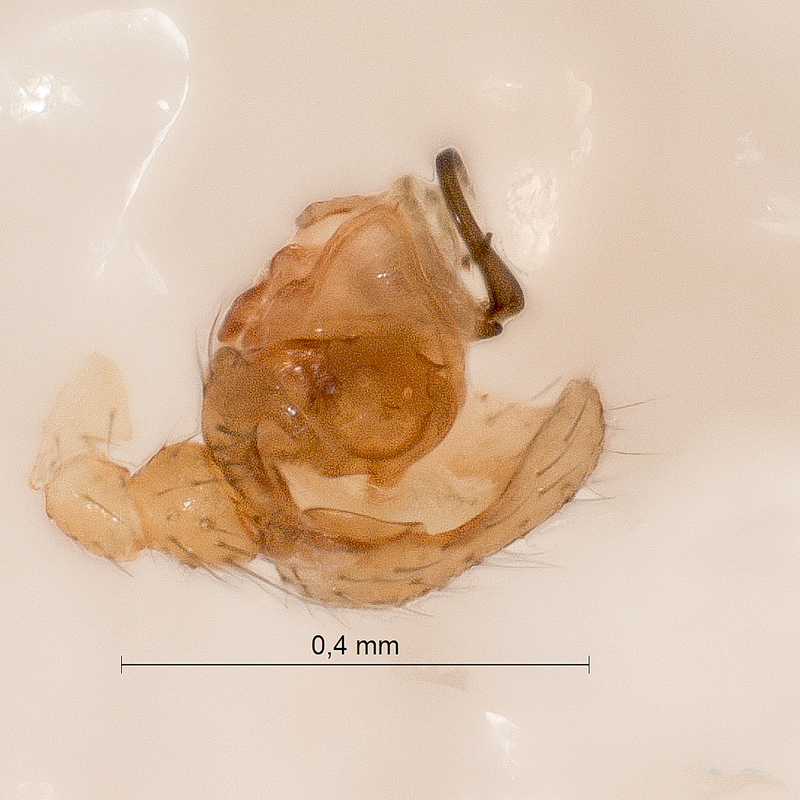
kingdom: Animalia
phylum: Arthropoda
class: Arachnida
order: Araneae
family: Linyphiidae
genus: Bathyphantes
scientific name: Bathyphantes gracilis
